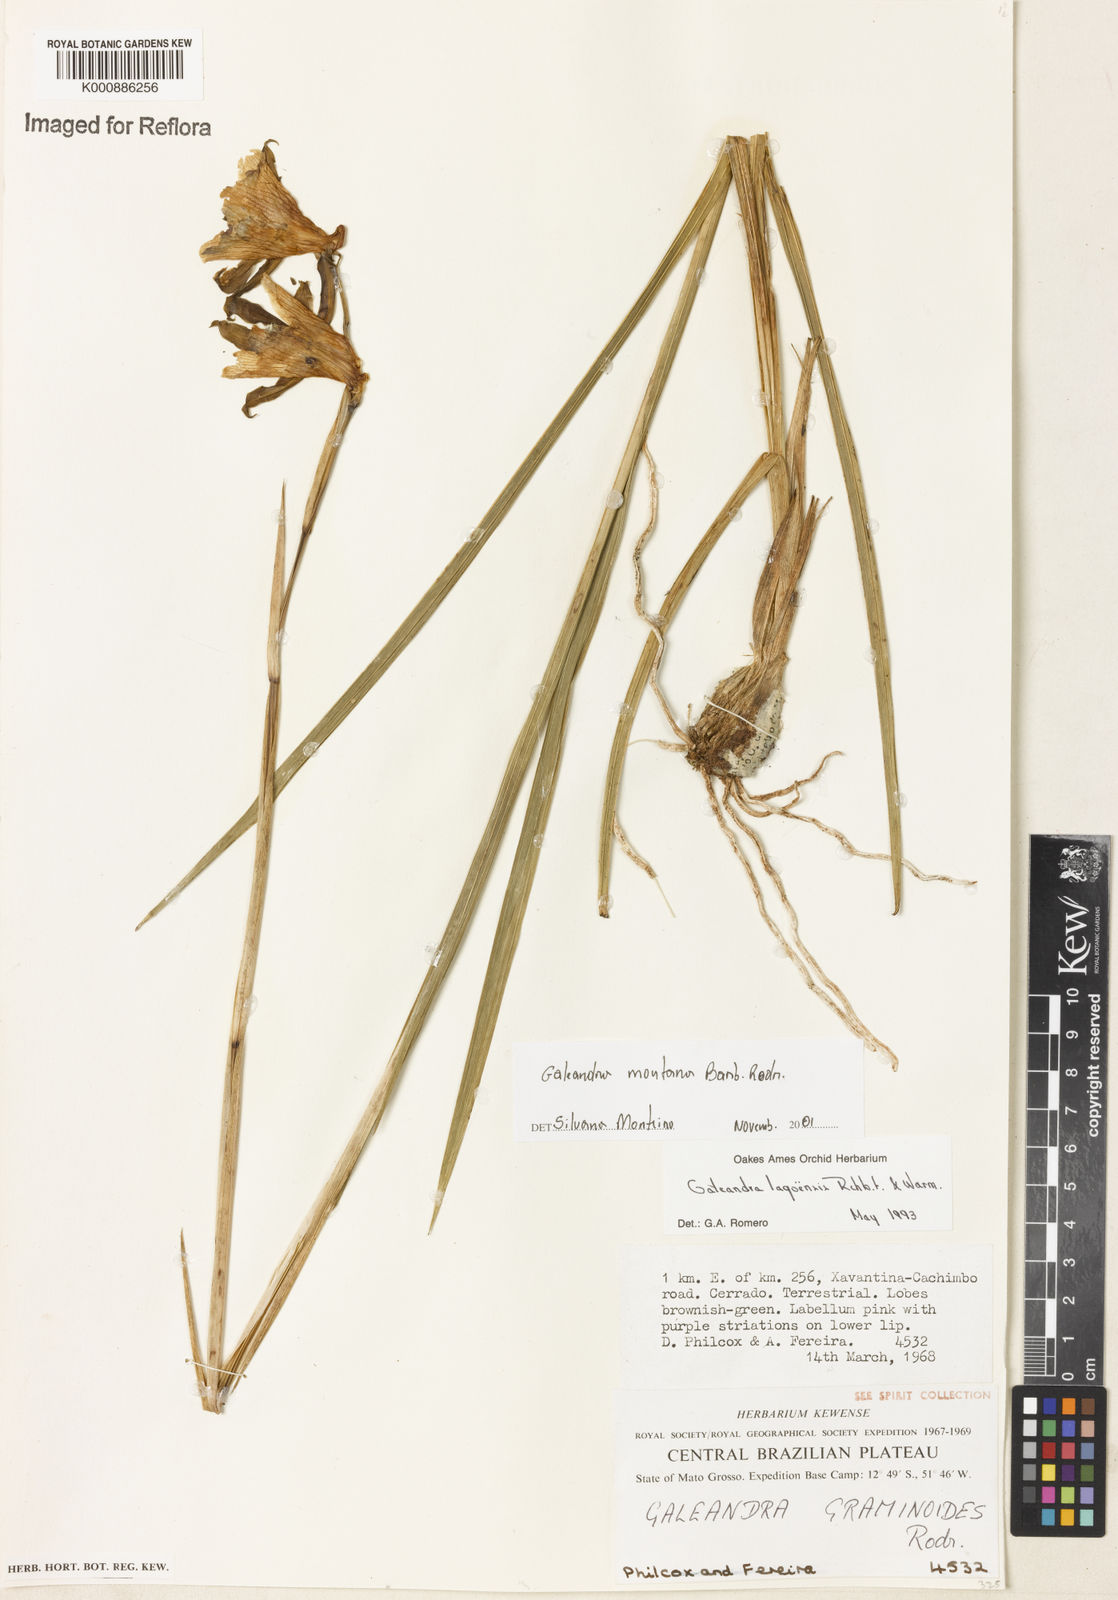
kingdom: Plantae
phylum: Tracheophyta
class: Liliopsida
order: Asparagales
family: Orchidaceae
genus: Galeandra
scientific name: Galeandra montana
